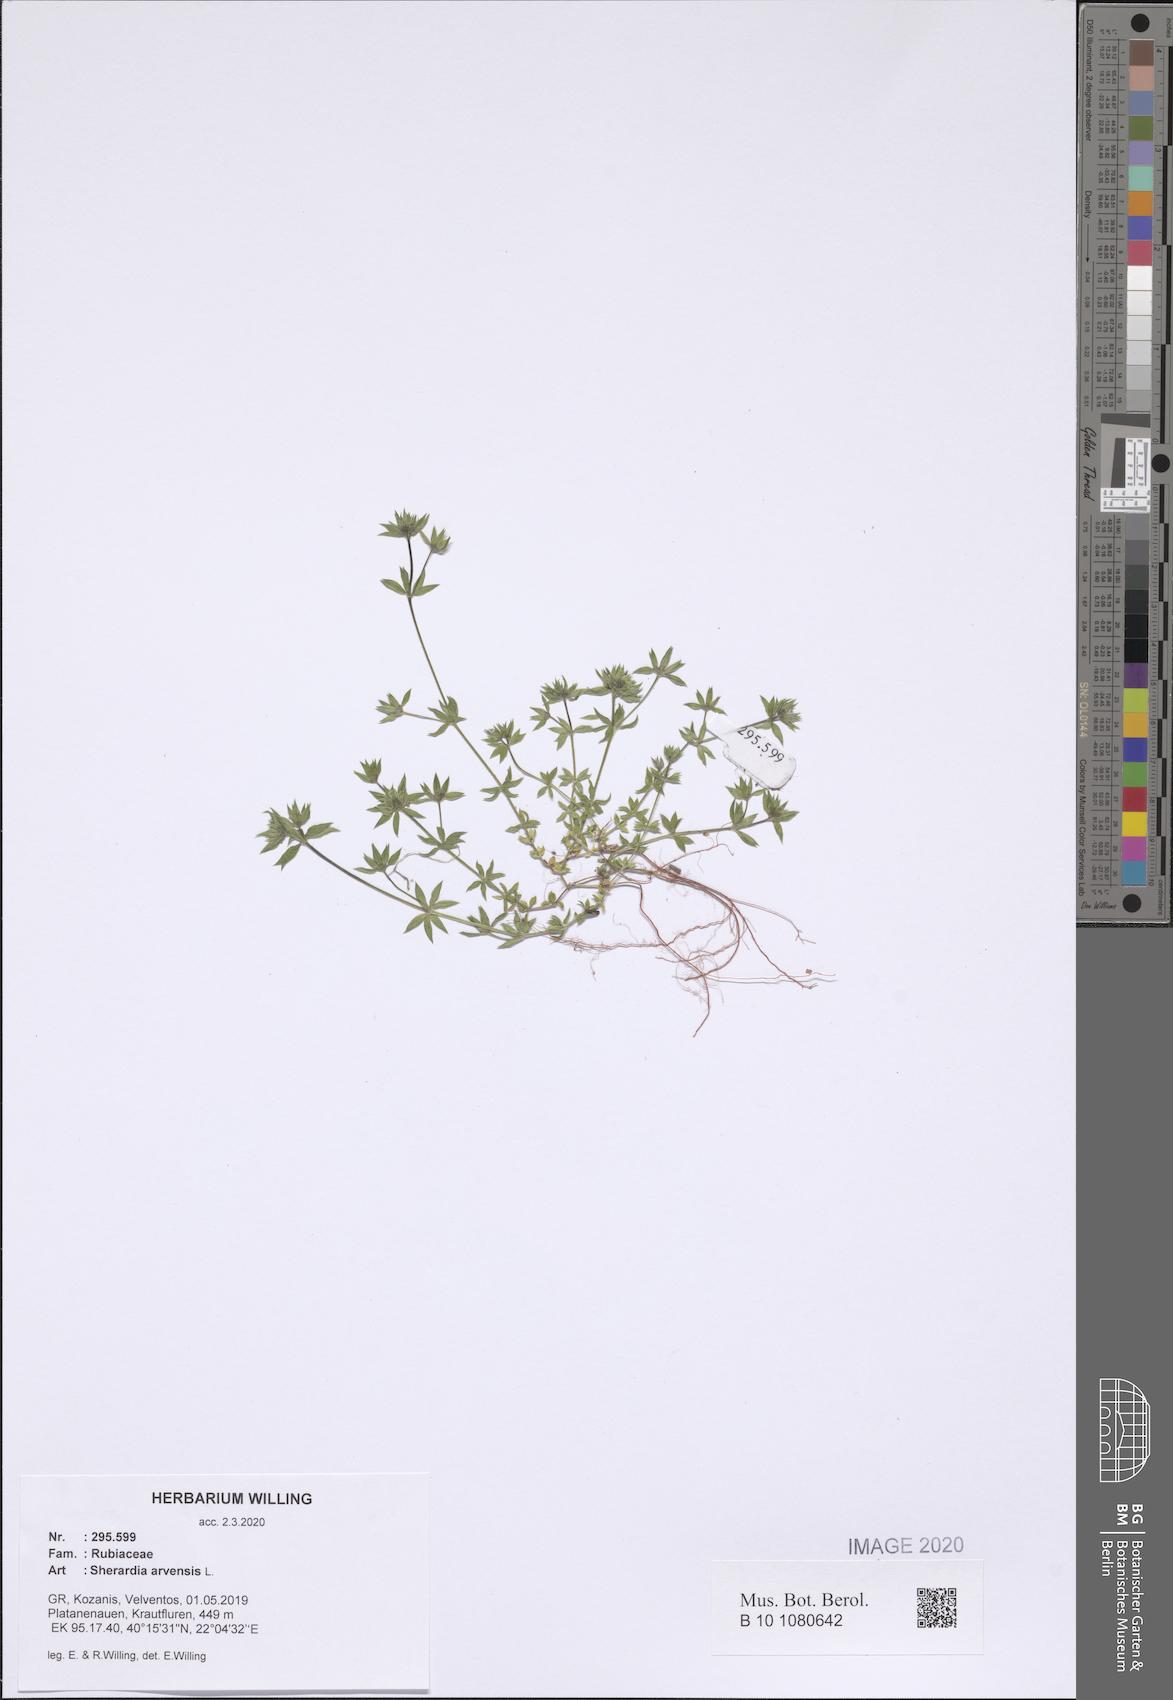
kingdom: Plantae
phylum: Tracheophyta
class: Magnoliopsida
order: Gentianales
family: Rubiaceae
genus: Sherardia
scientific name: Sherardia arvensis
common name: Field madder
